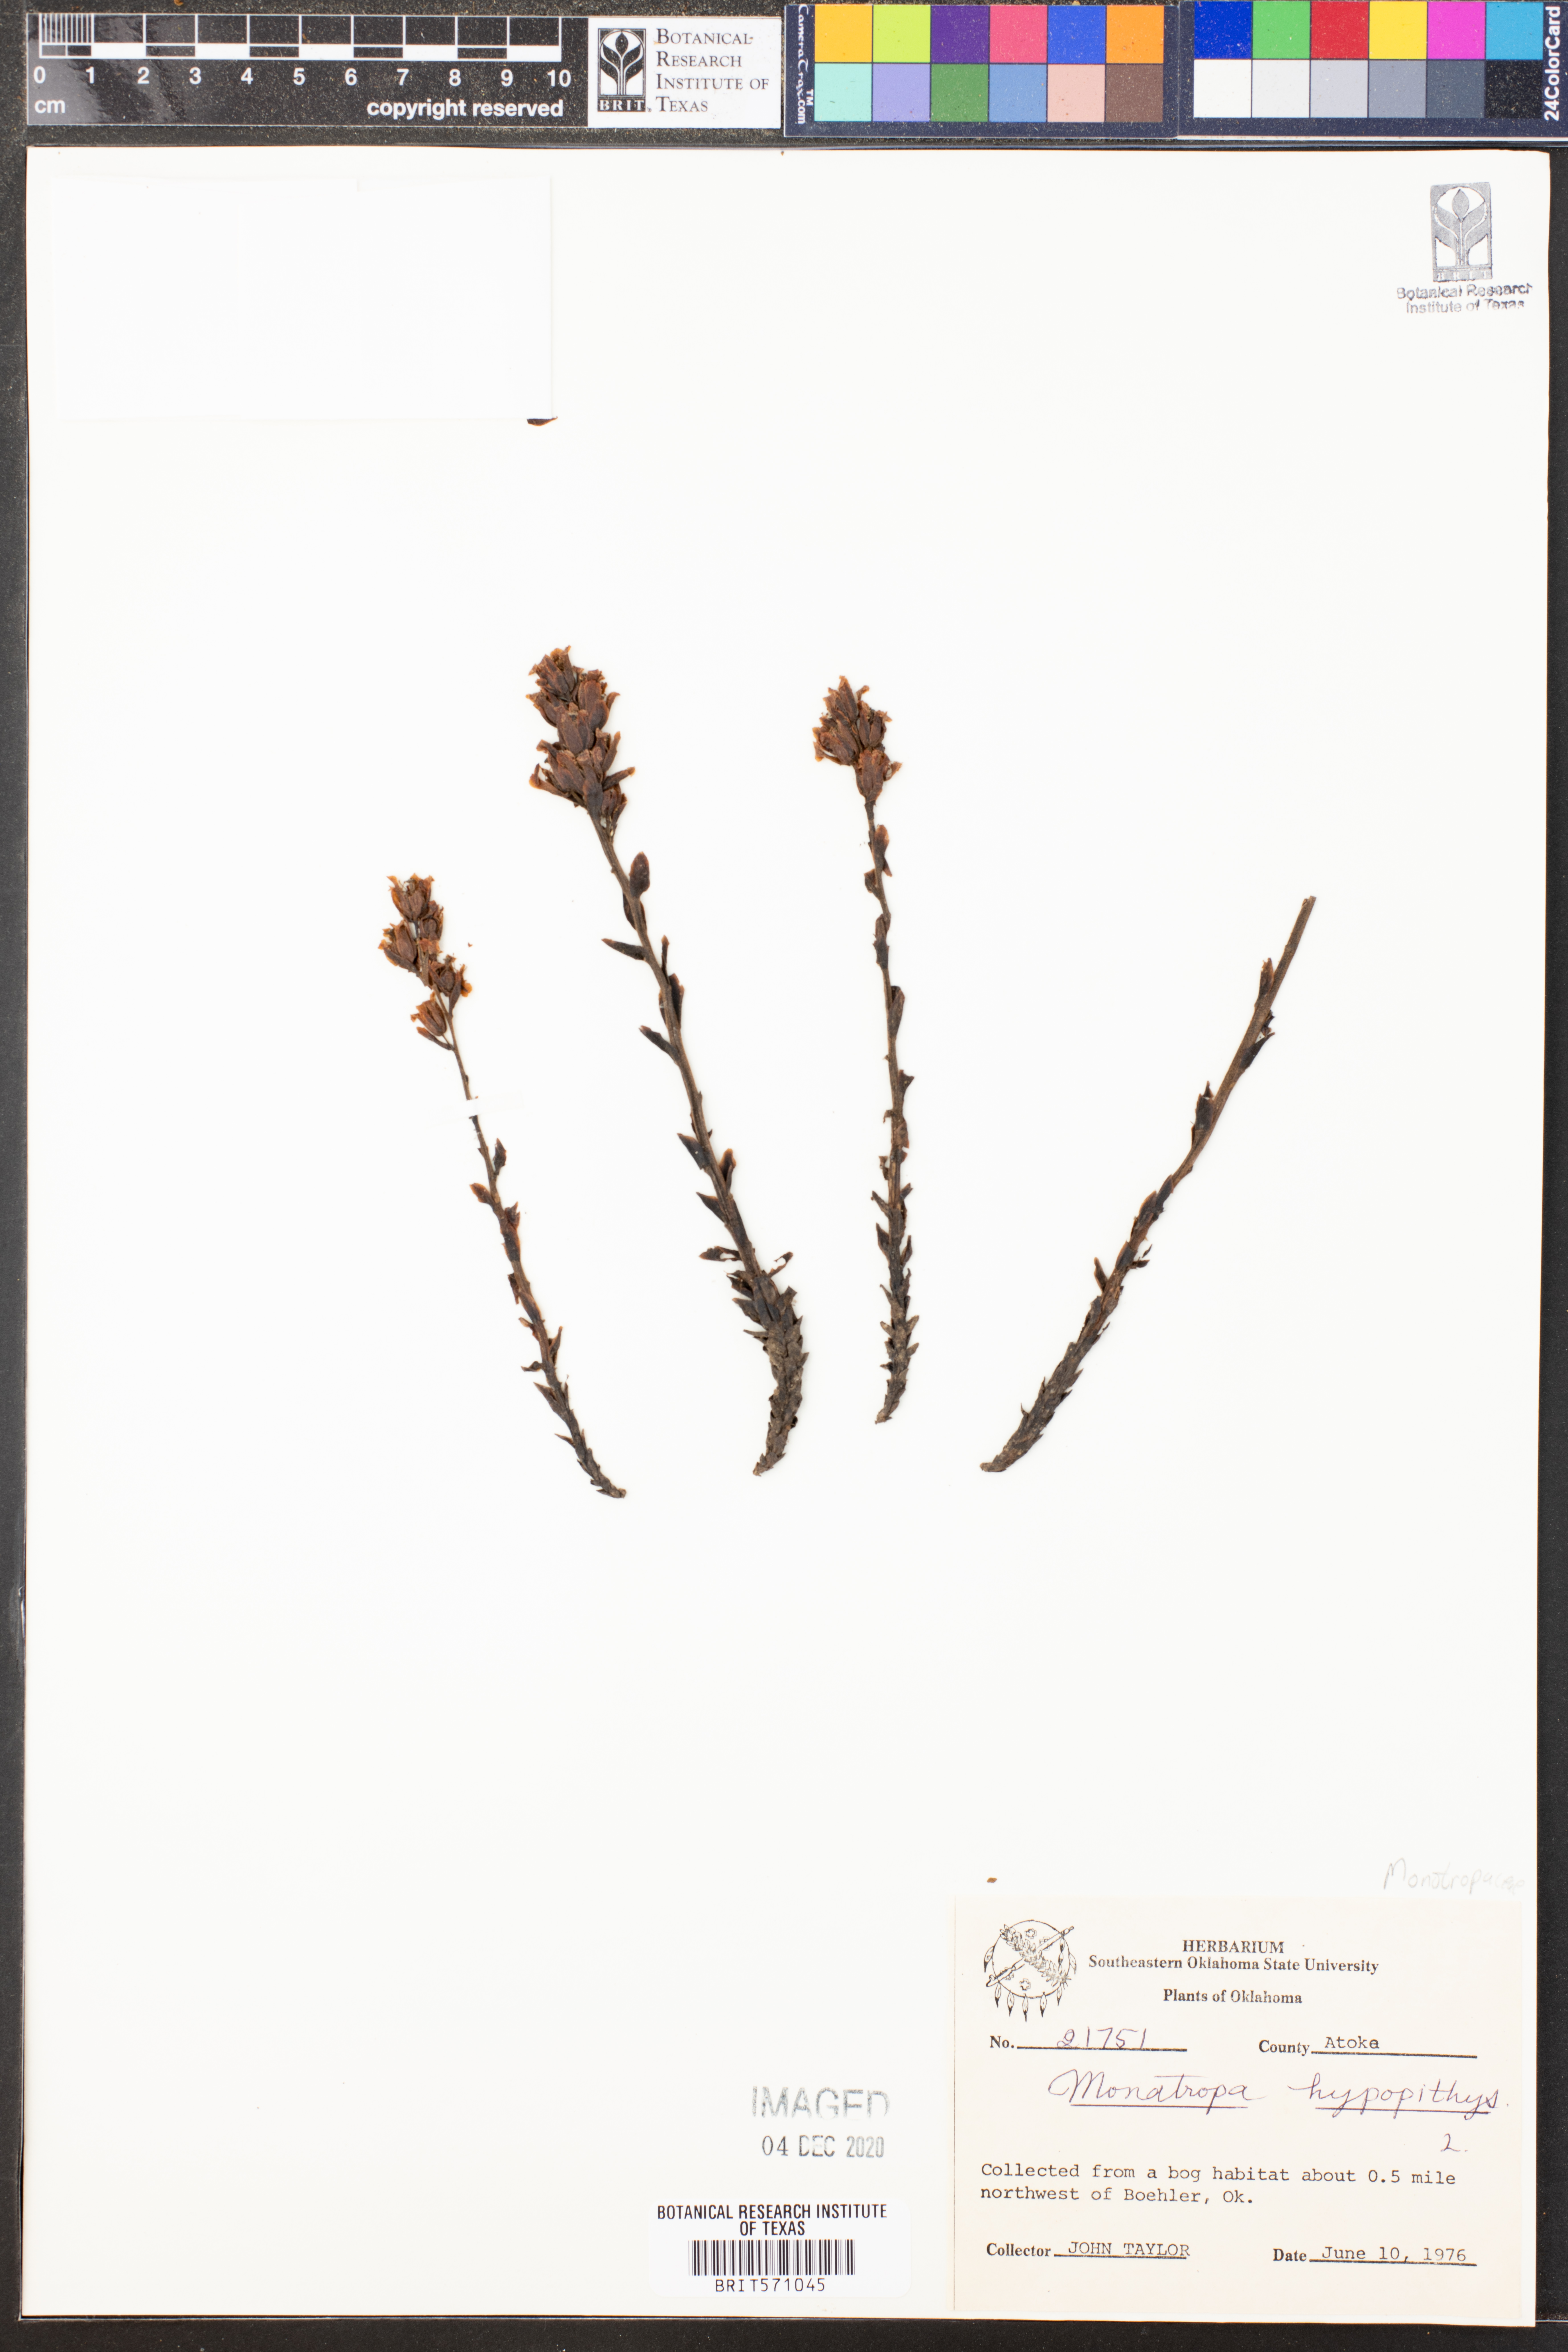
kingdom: Plantae
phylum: Tracheophyta
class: Magnoliopsida
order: Ericales
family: Ericaceae
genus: Hypopitys
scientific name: Hypopitys monotropa
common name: Yellow bird's-nest
